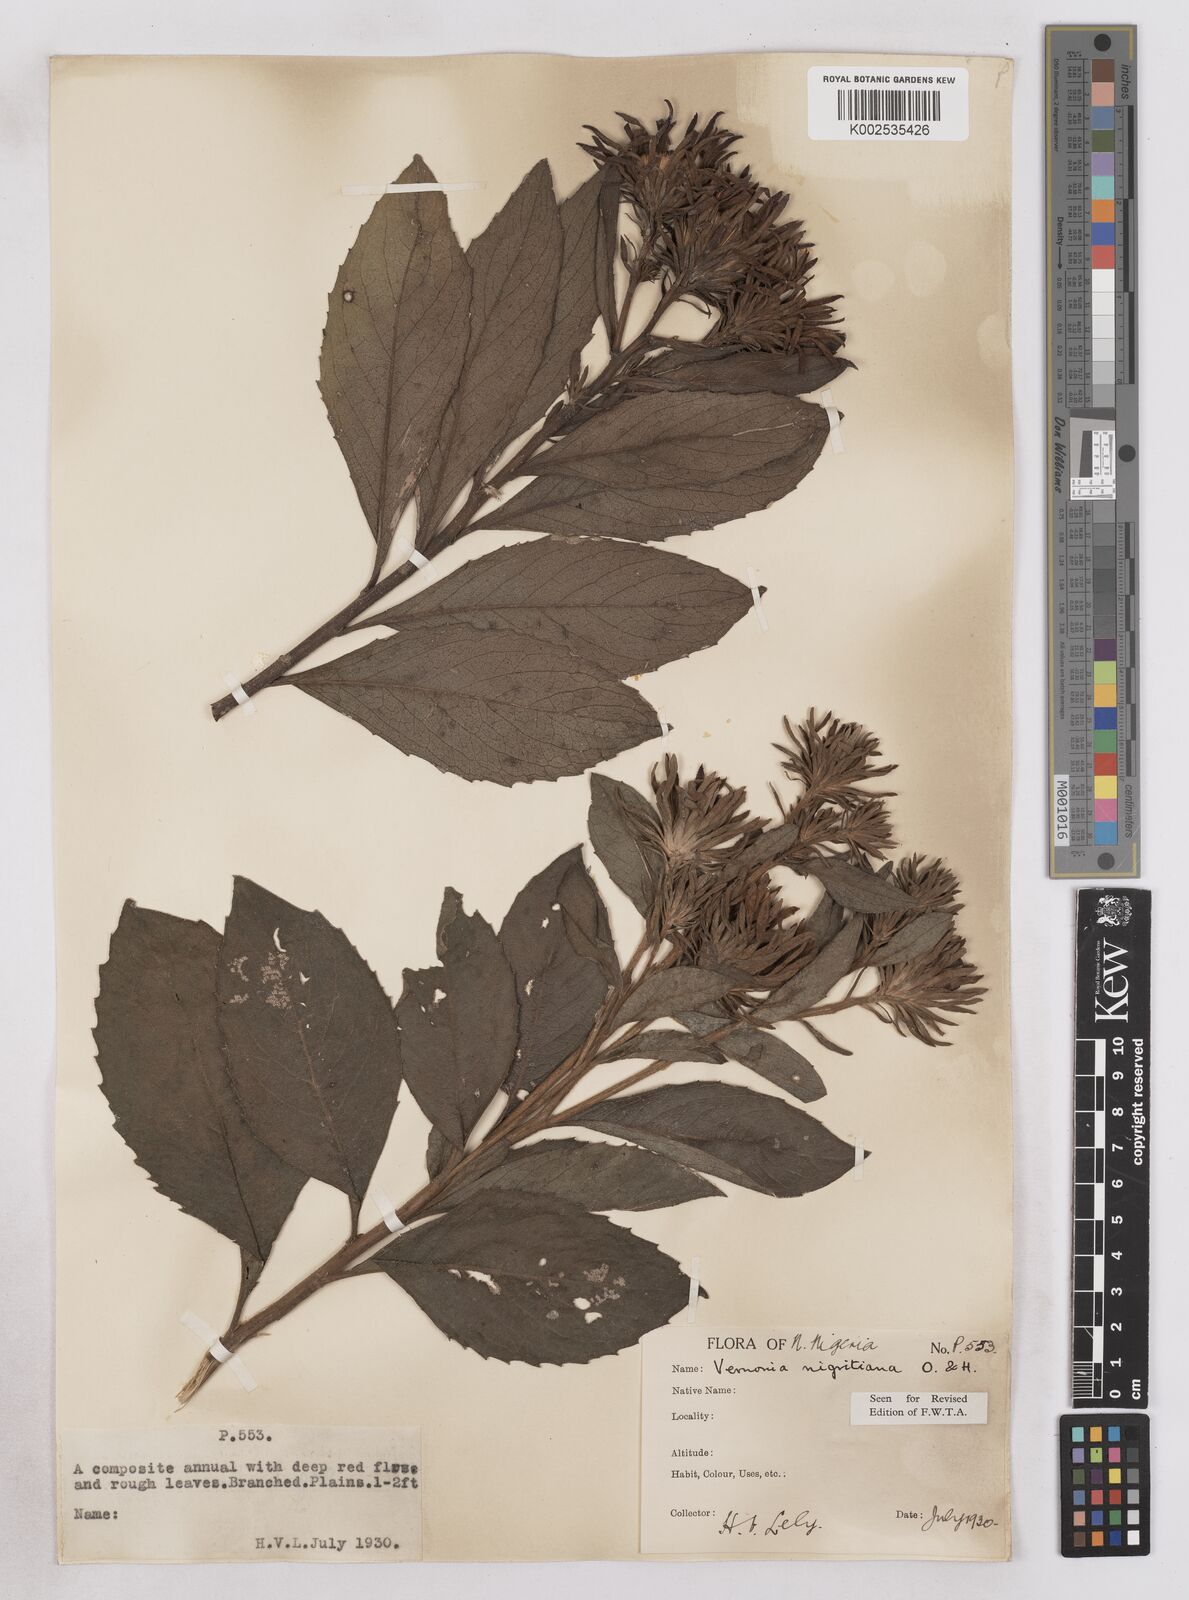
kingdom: Plantae
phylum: Tracheophyta
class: Magnoliopsida
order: Asterales
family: Asteraceae
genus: Linzia
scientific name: Linzia nigritiana
